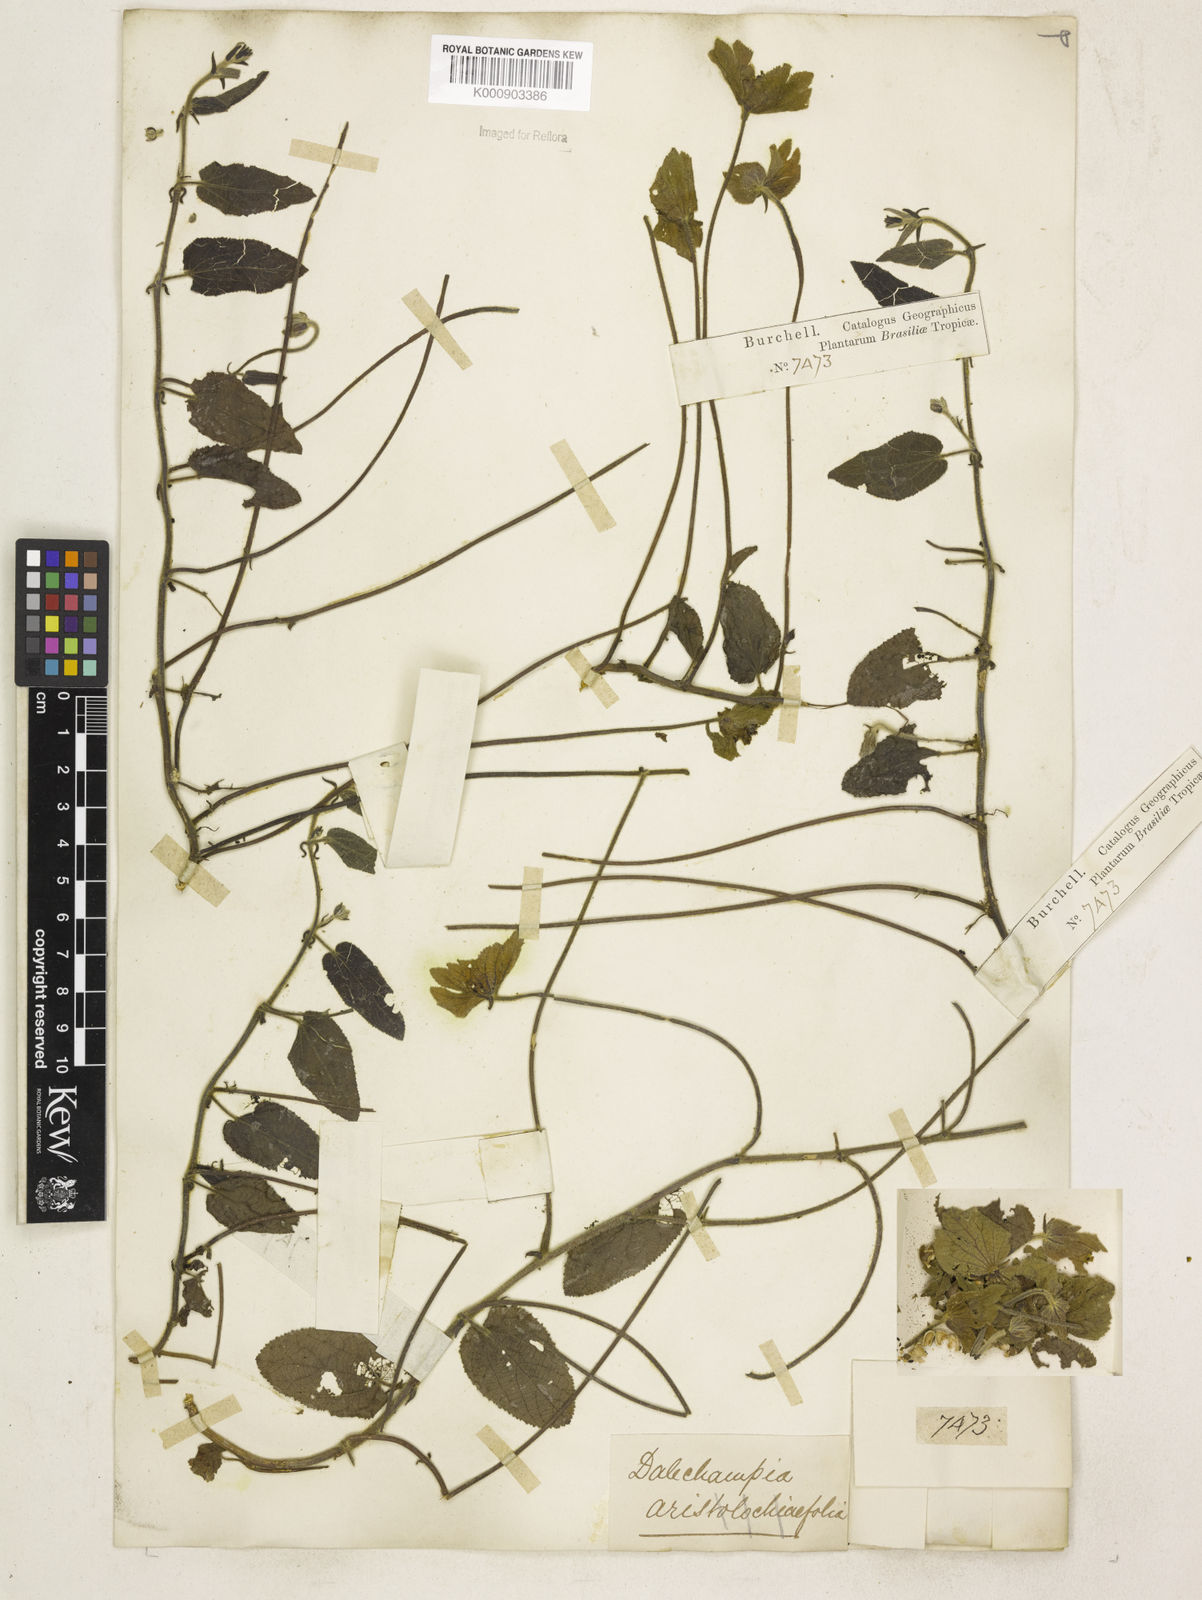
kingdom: Plantae
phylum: Tracheophyta
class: Magnoliopsida
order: Malpighiales
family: Euphorbiaceae
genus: Dalechampia
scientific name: Dalechampia
